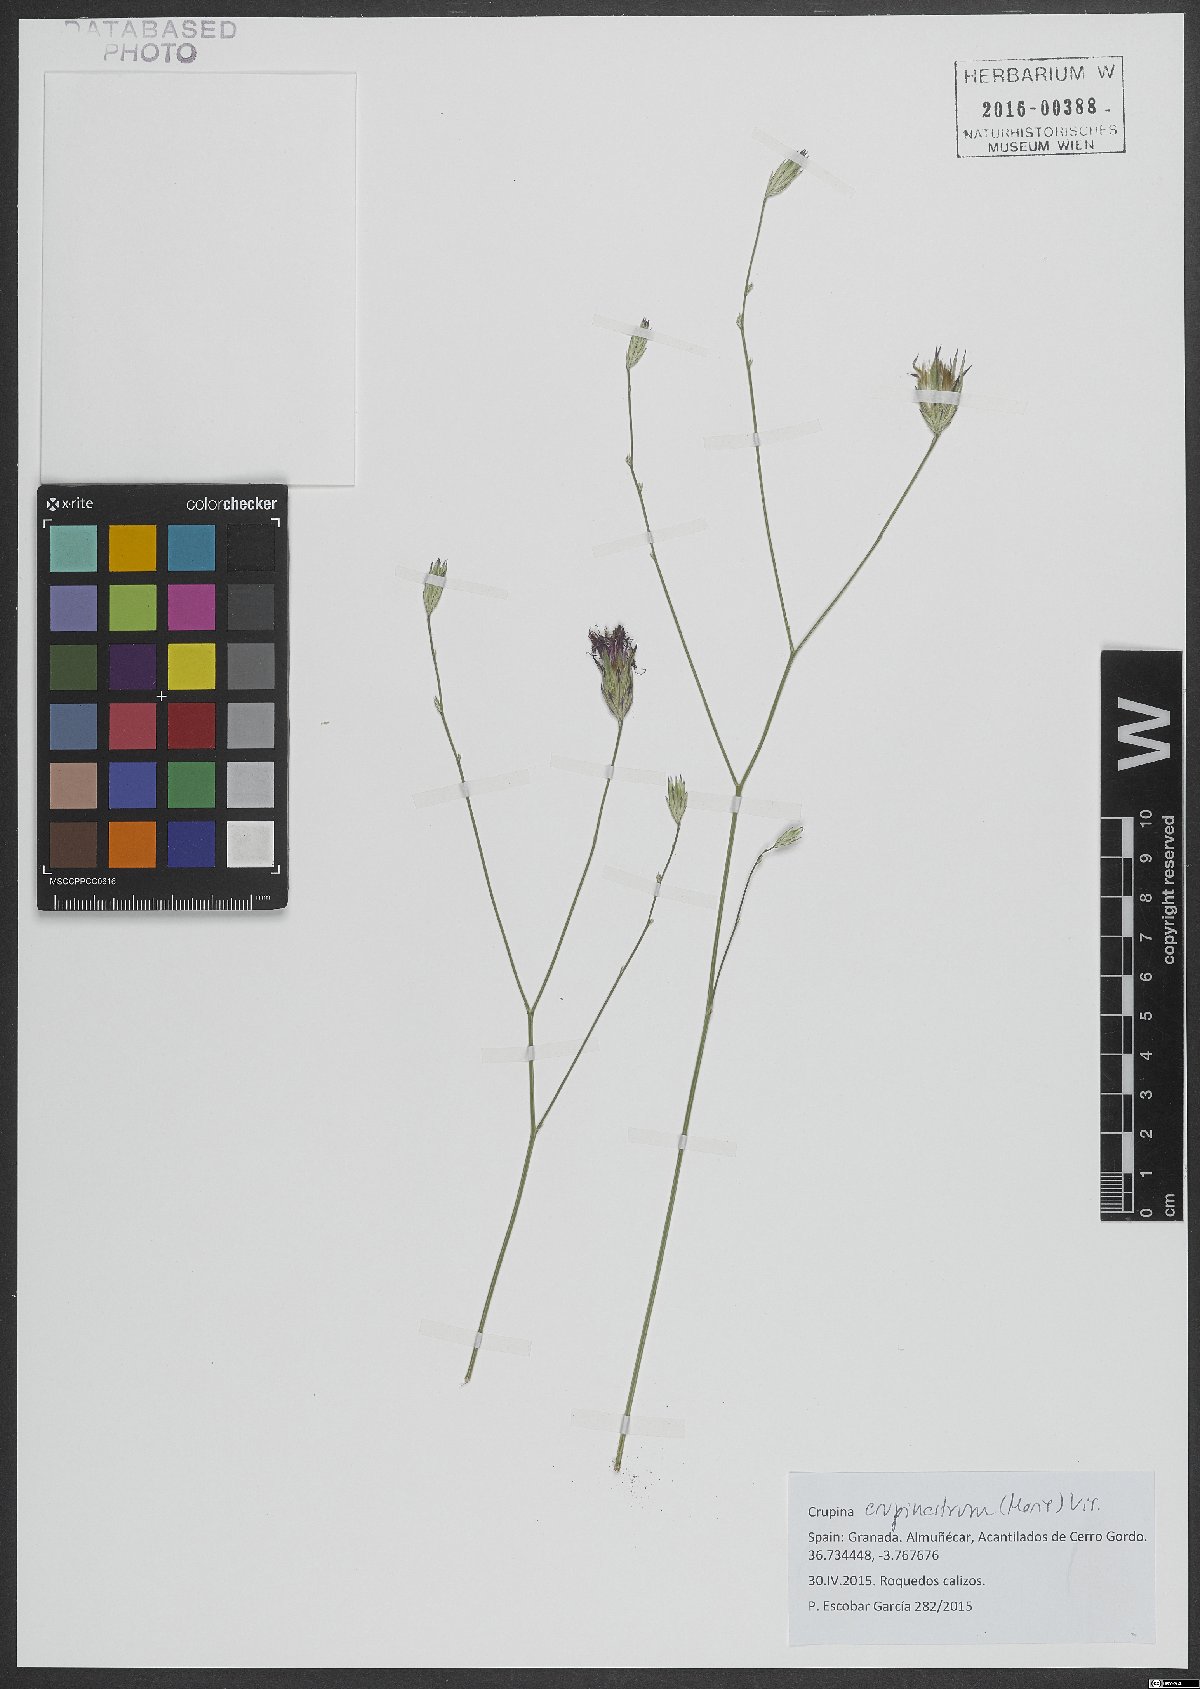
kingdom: Plantae
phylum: Tracheophyta
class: Magnoliopsida
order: Asterales
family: Asteraceae
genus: Crupina
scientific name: Crupina crupinastrum
